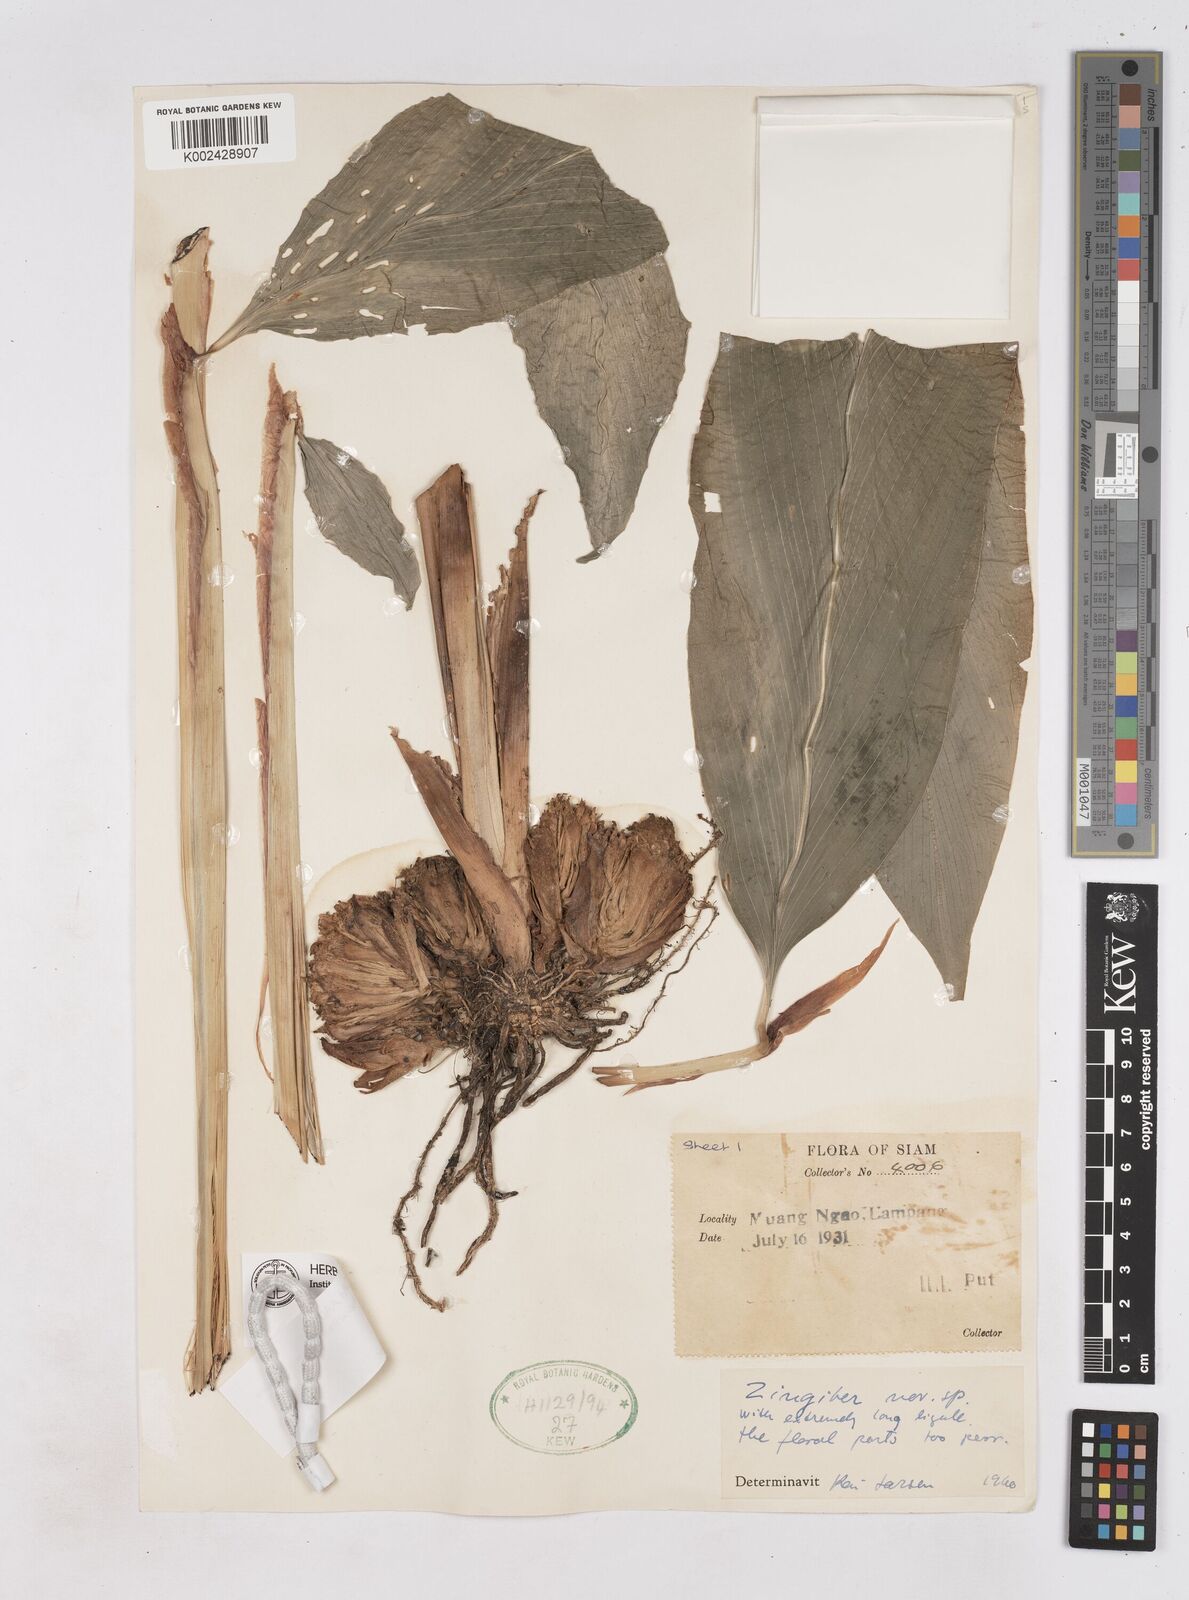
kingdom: Plantae
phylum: Tracheophyta
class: Liliopsida
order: Zingiberales
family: Zingiberaceae
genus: Zingiber
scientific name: Zingiber integrum
